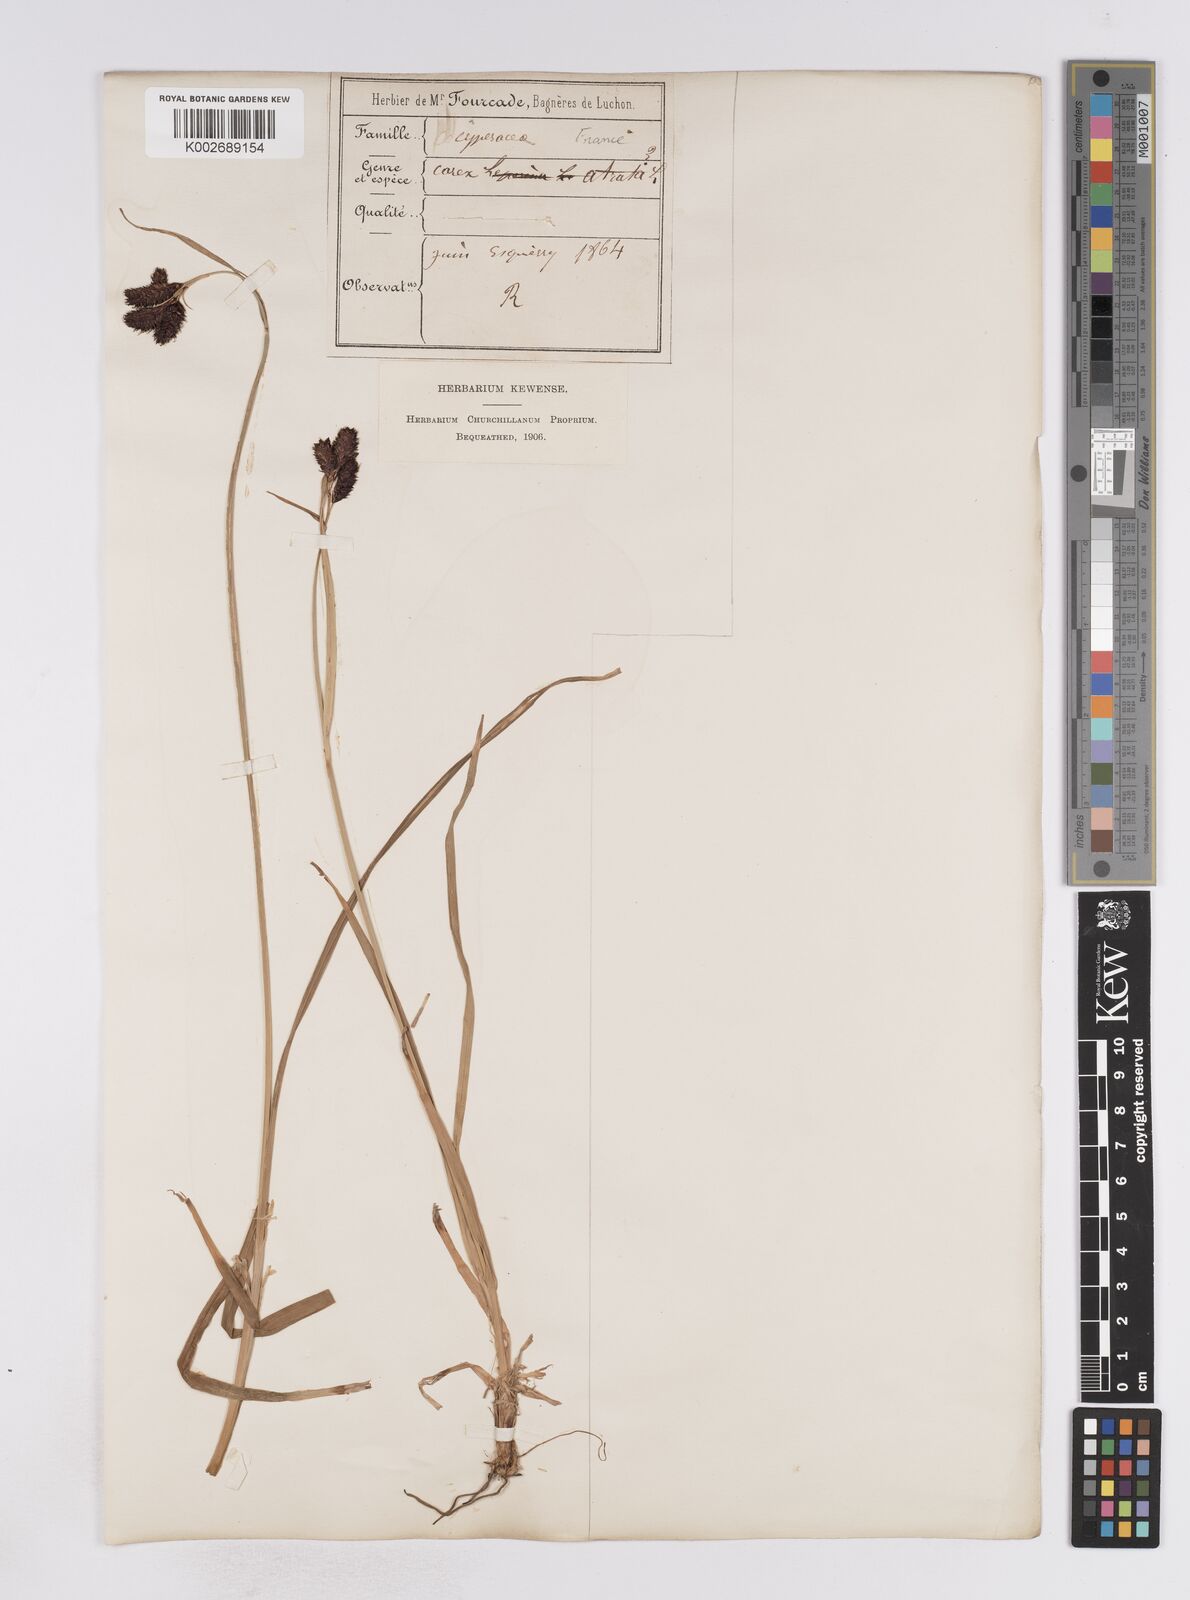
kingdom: Plantae
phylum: Tracheophyta
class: Liliopsida
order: Poales
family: Cyperaceae
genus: Carex
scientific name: Carex aterrima
